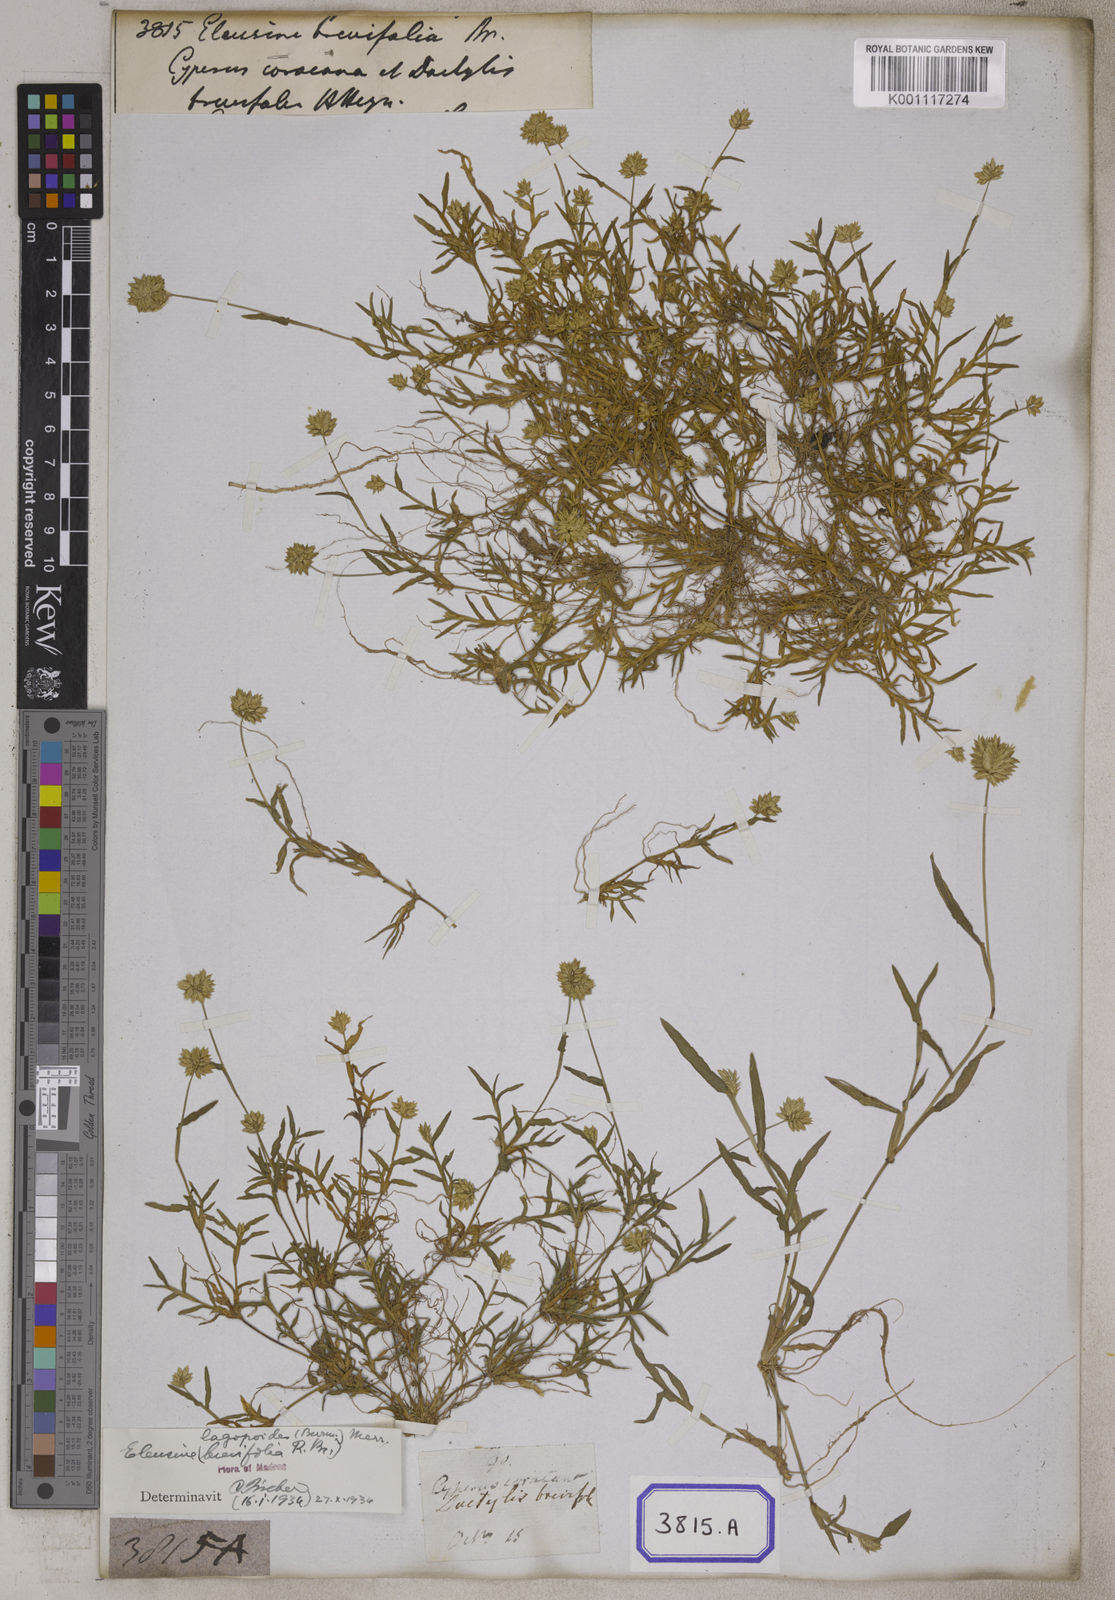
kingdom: Plantae
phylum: Tracheophyta
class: Liliopsida
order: Poales
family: Poaceae
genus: Eleusine
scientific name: Eleusine
